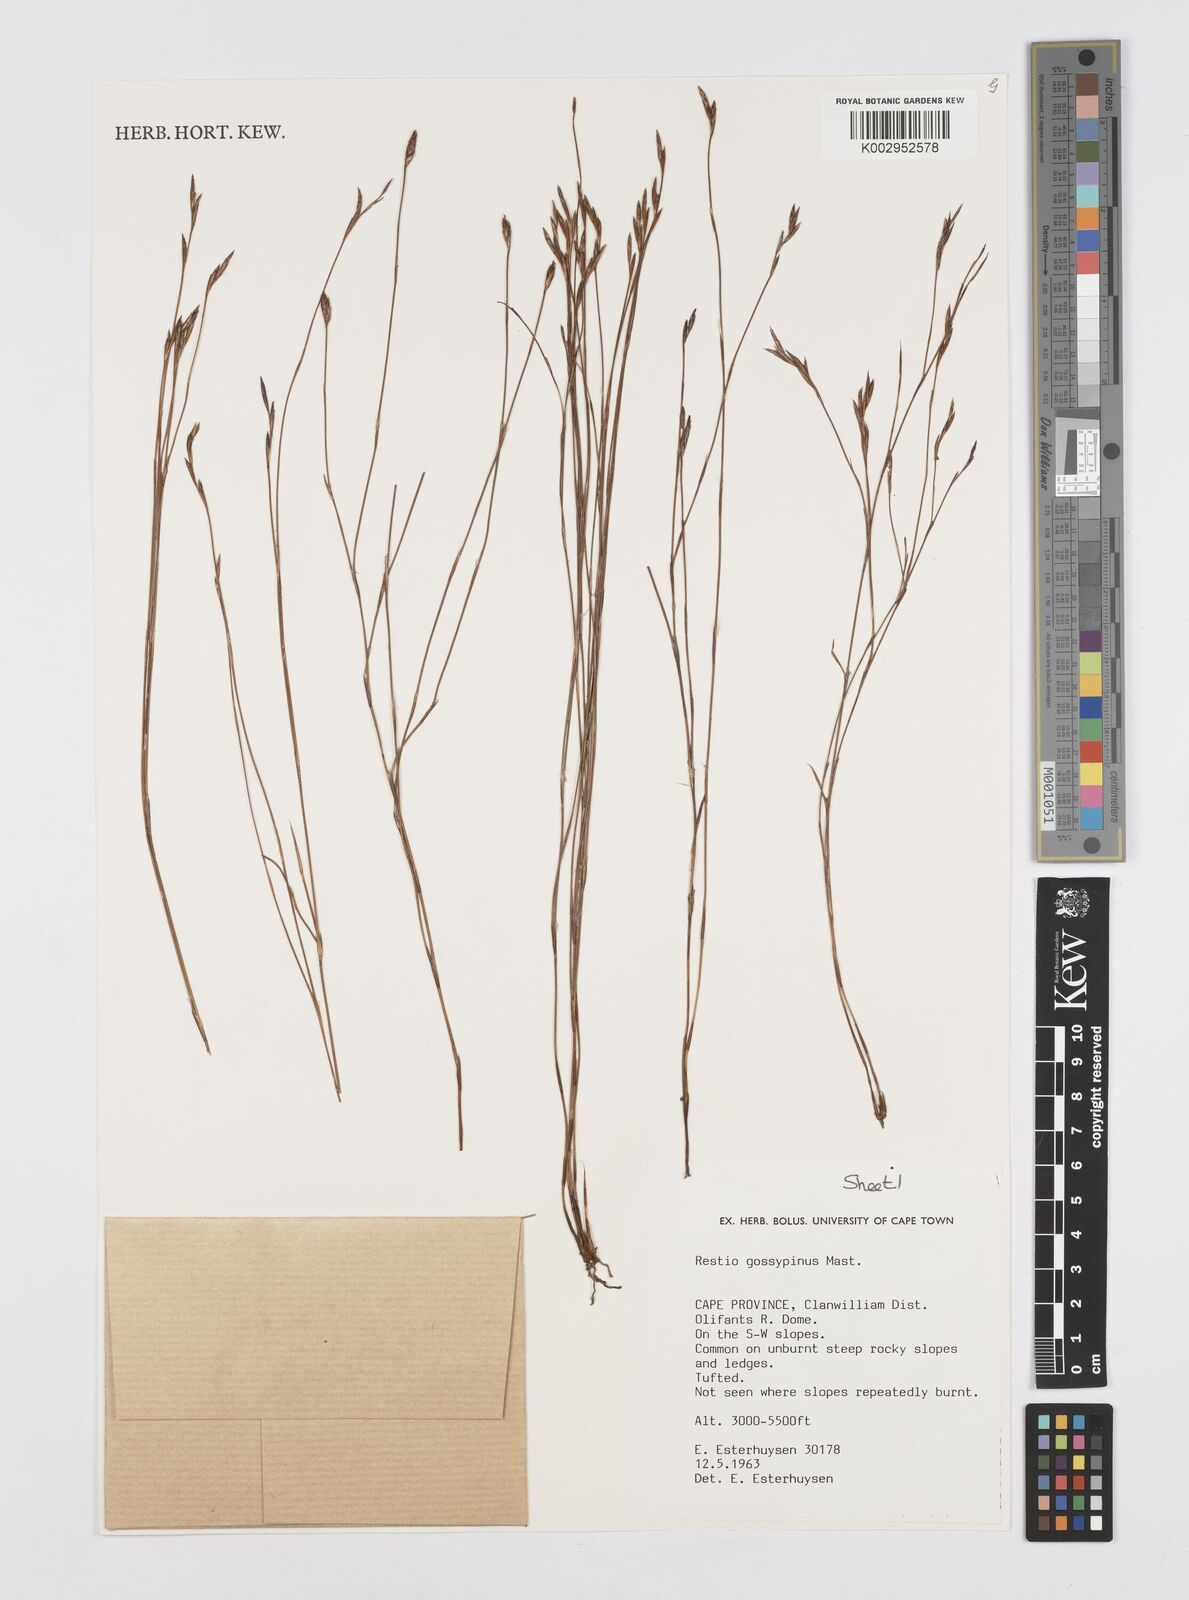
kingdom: Plantae
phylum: Tracheophyta
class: Liliopsida
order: Poales
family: Restionaceae
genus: Restio
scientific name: Restio gossypinus
